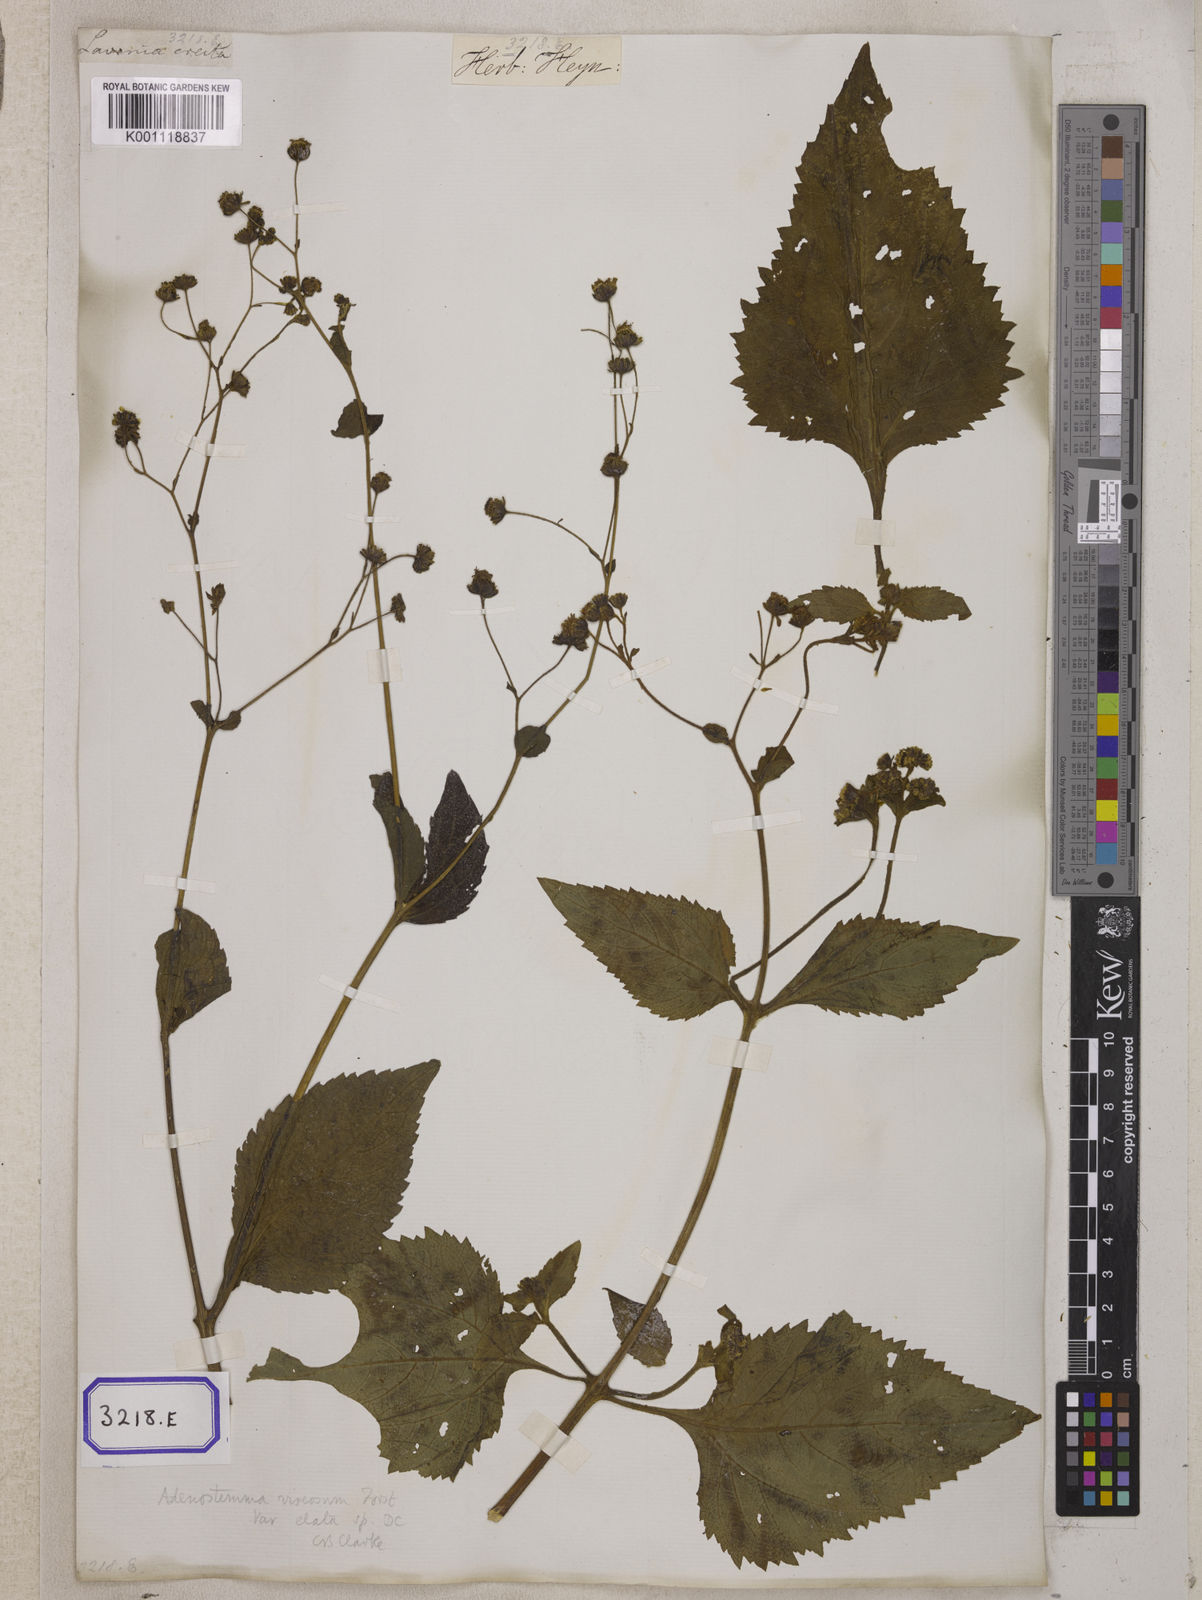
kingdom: Plantae
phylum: Tracheophyta
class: Magnoliopsida
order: Asterales
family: Asteraceae
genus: Adenostemma
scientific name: Adenostemma viscosum
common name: Dungweed
